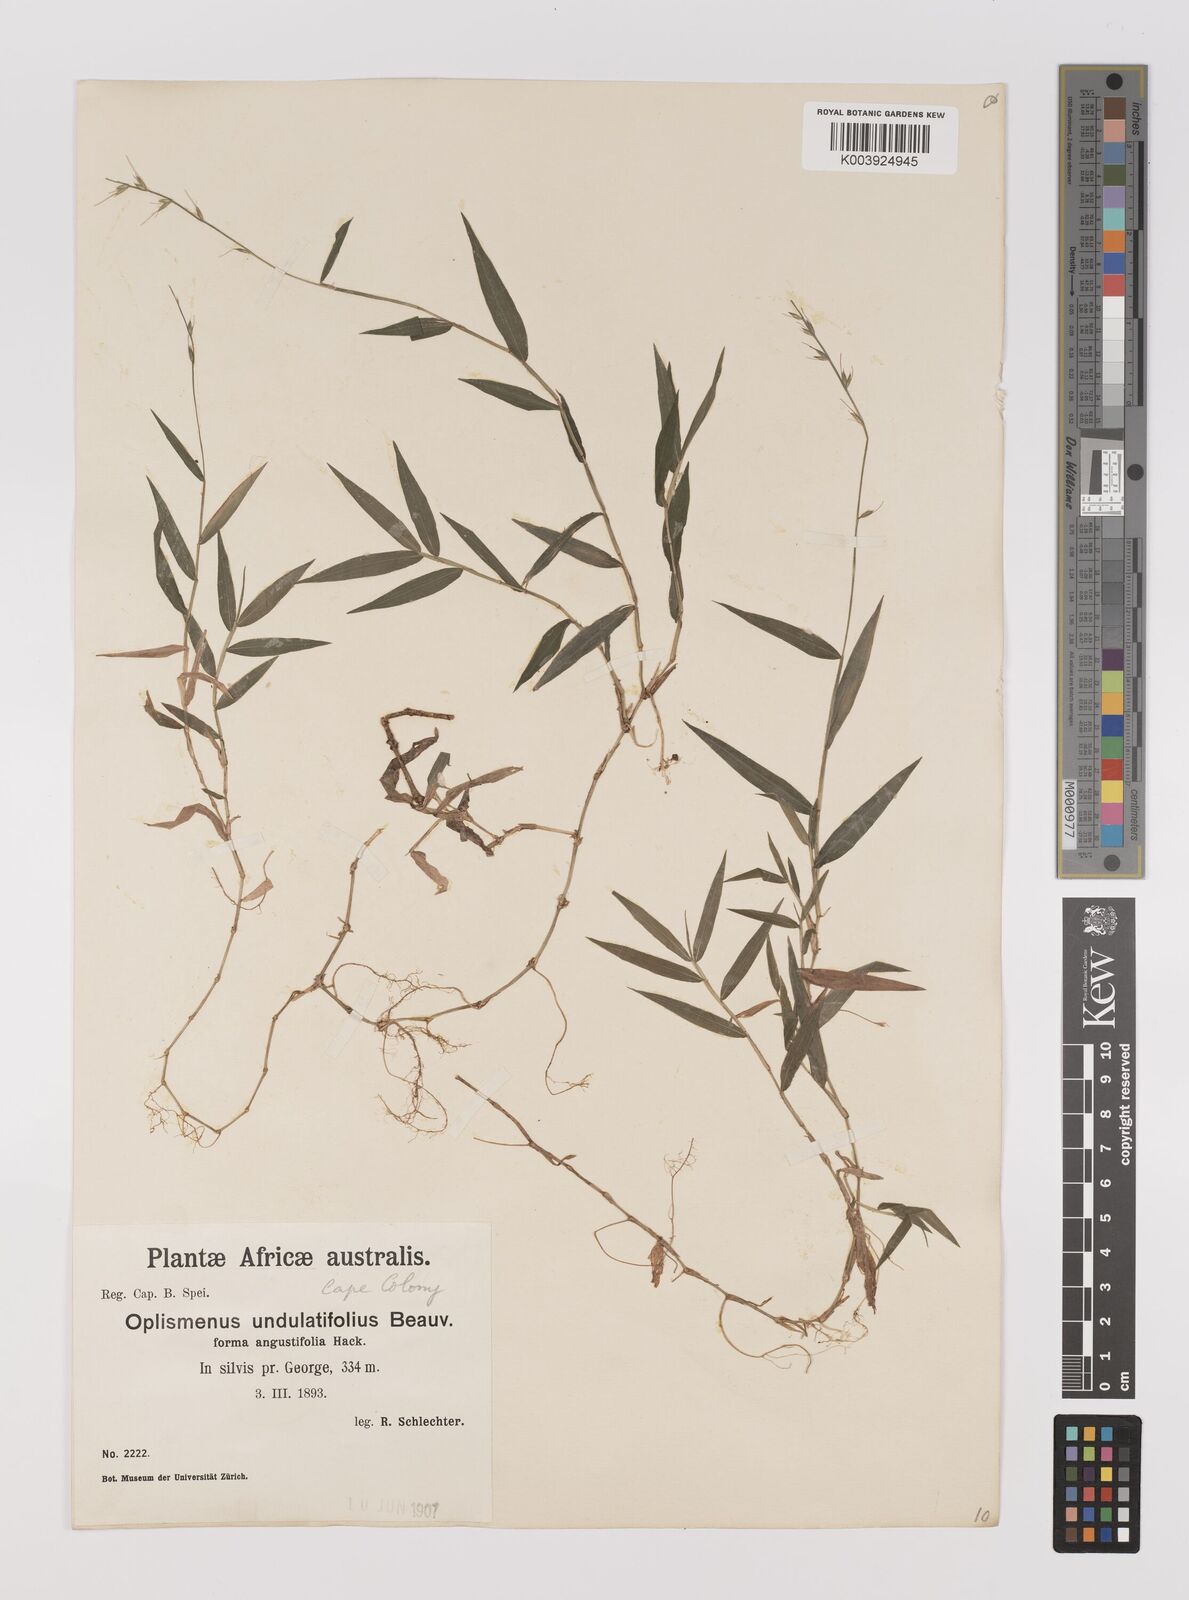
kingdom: Plantae
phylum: Tracheophyta
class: Liliopsida
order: Poales
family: Poaceae
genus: Oplismenus
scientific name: Oplismenus undulatifolius
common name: Wavyleaf basketgrass
